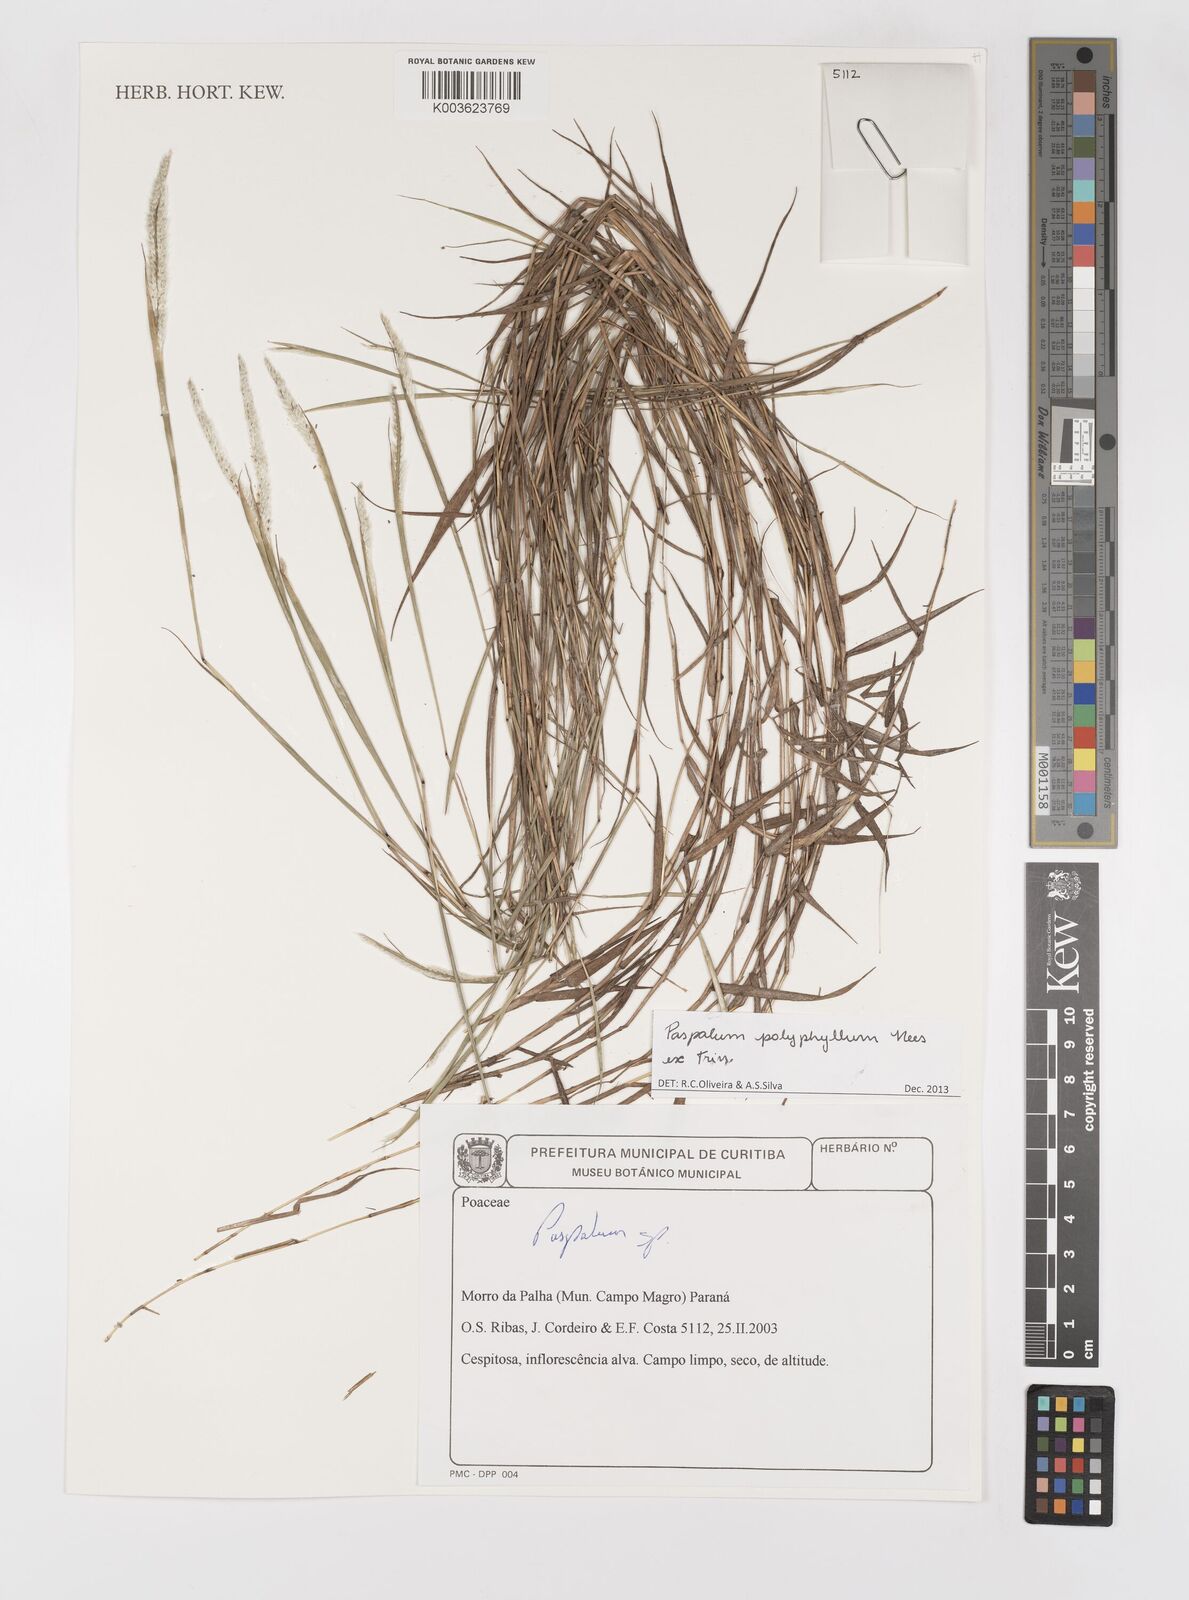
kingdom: Plantae
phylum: Tracheophyta
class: Liliopsida
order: Poales
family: Poaceae
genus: Paspalum
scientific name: Paspalum polyphyllum
